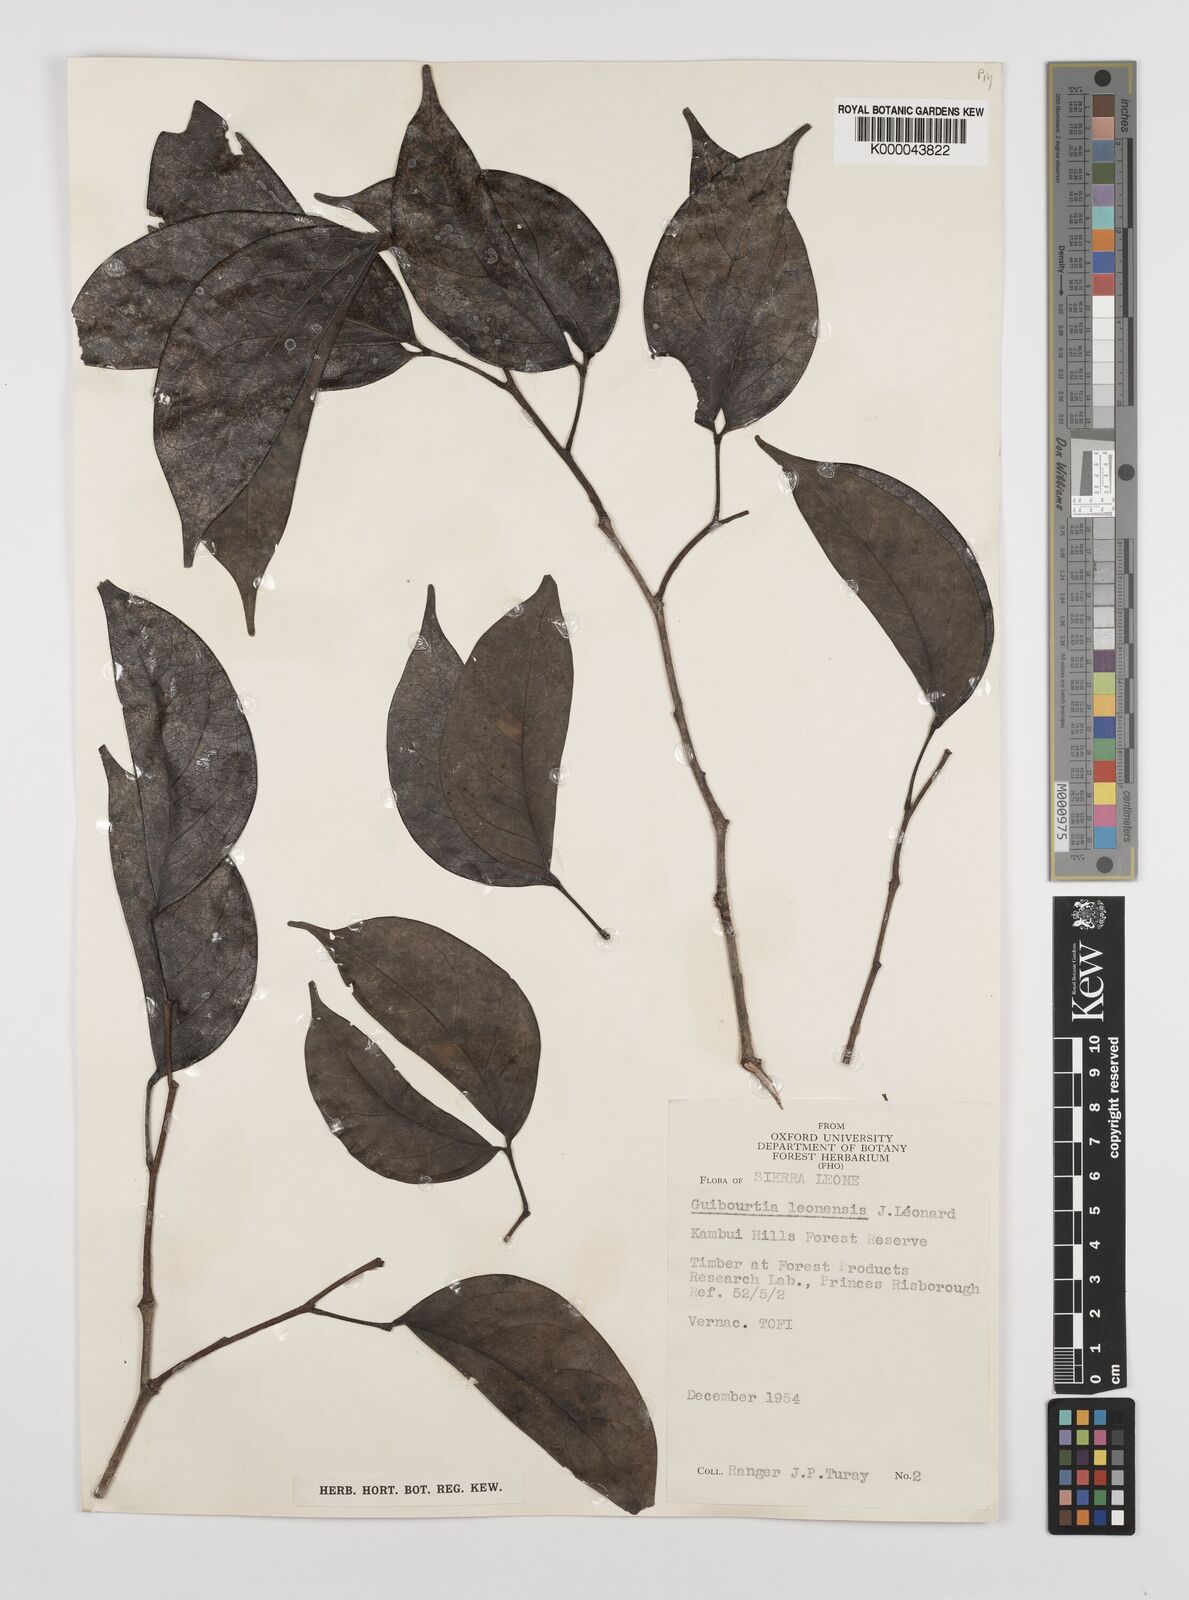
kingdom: Plantae
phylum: Tracheophyta
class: Magnoliopsida
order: Fabales
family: Fabaceae
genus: Guibourtia
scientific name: Guibourtia
